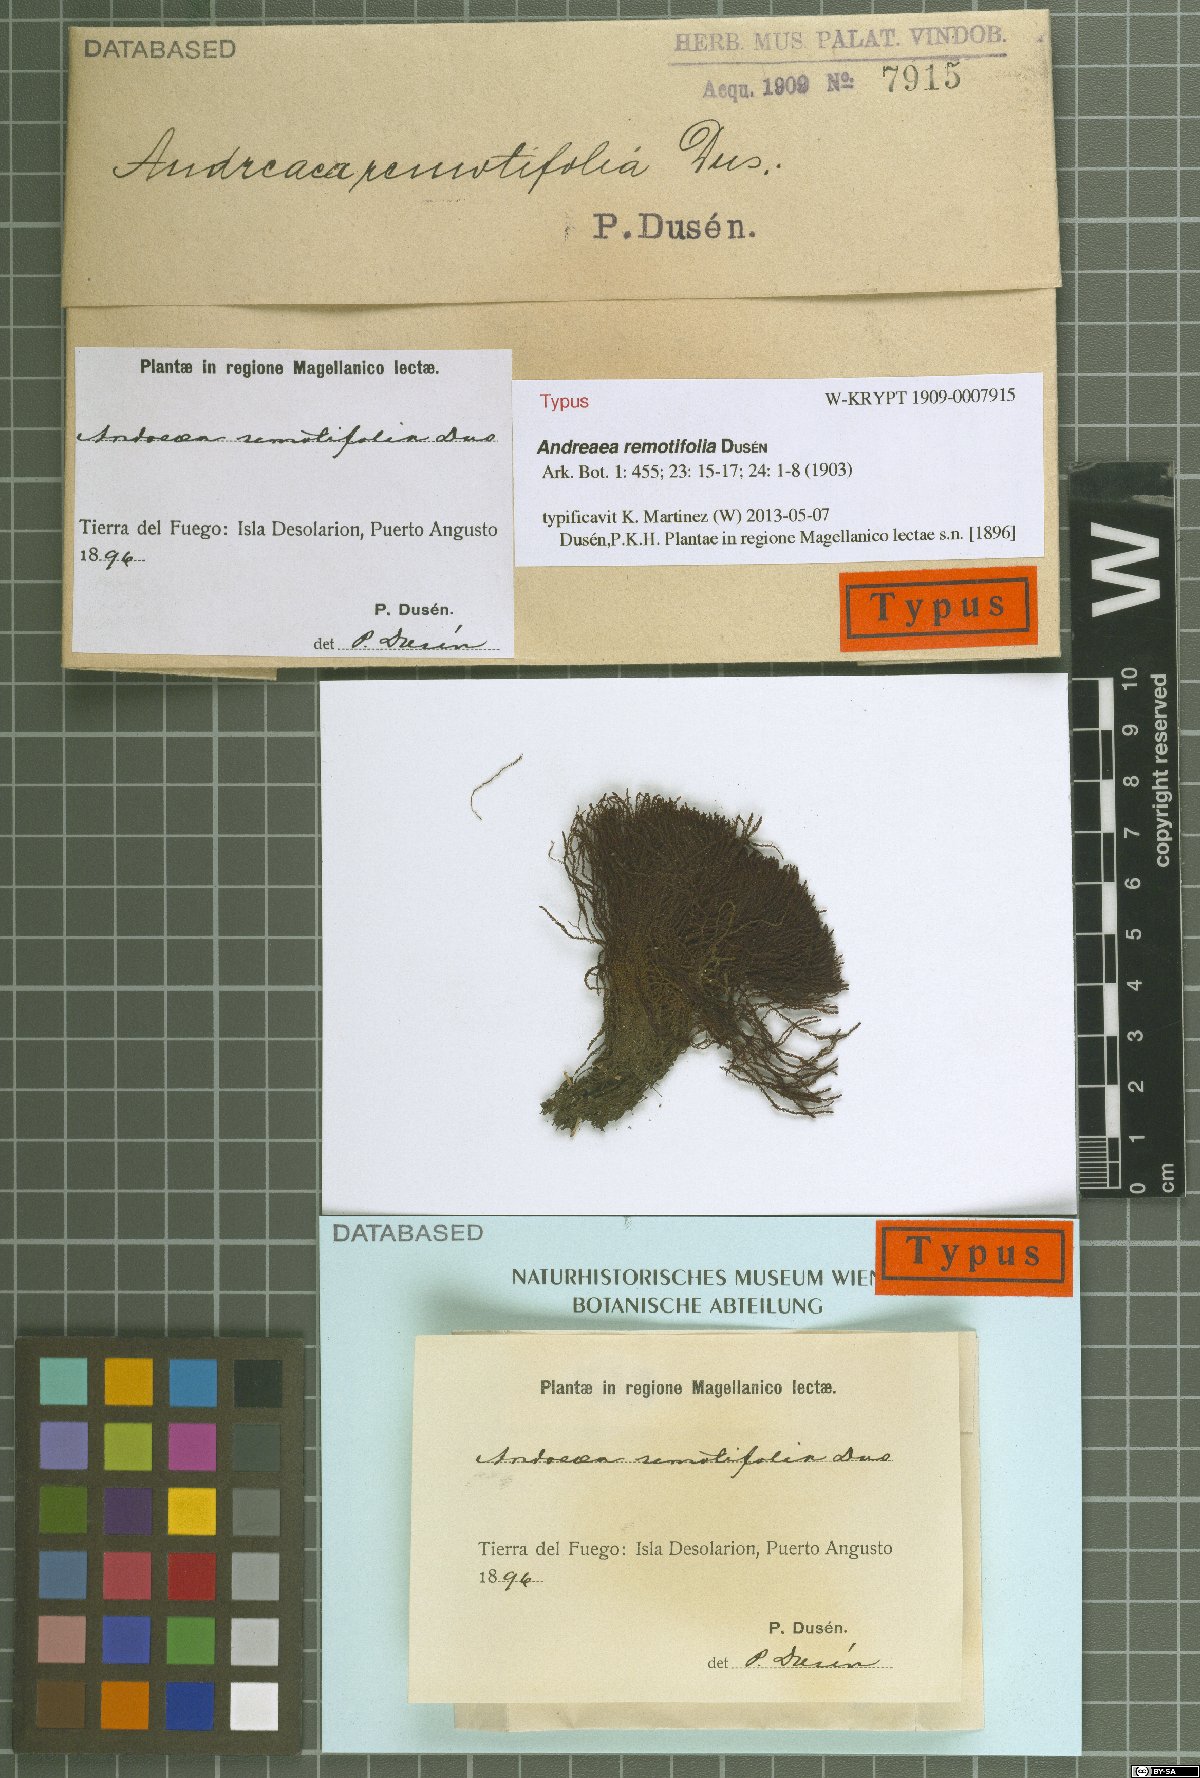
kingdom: Plantae
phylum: Bryophyta
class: Andreaeopsida
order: Andreaeales
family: Andreaeaceae
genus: Andreaea
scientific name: Andreaea remotifolia
